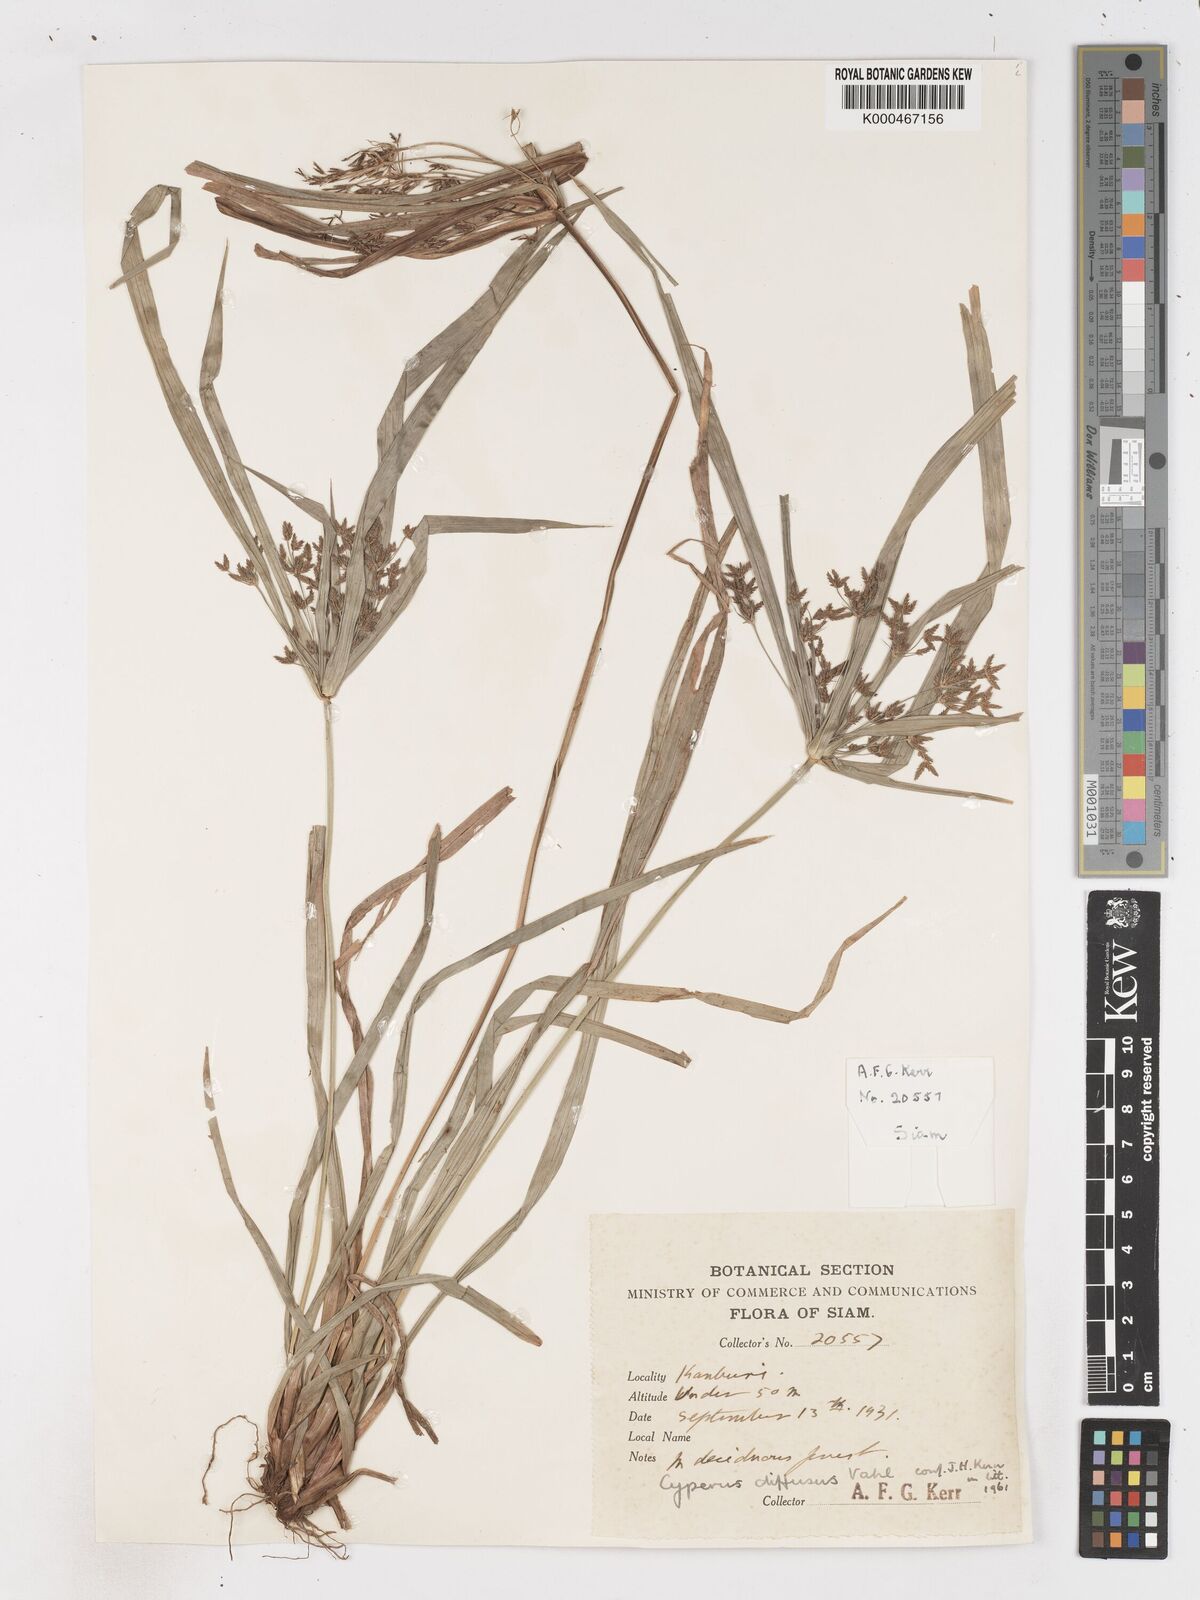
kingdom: Plantae
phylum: Tracheophyta
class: Liliopsida
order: Poales
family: Cyperaceae
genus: Cyperus
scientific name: Cyperus diffusus
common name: Dwarf umbrella grass
